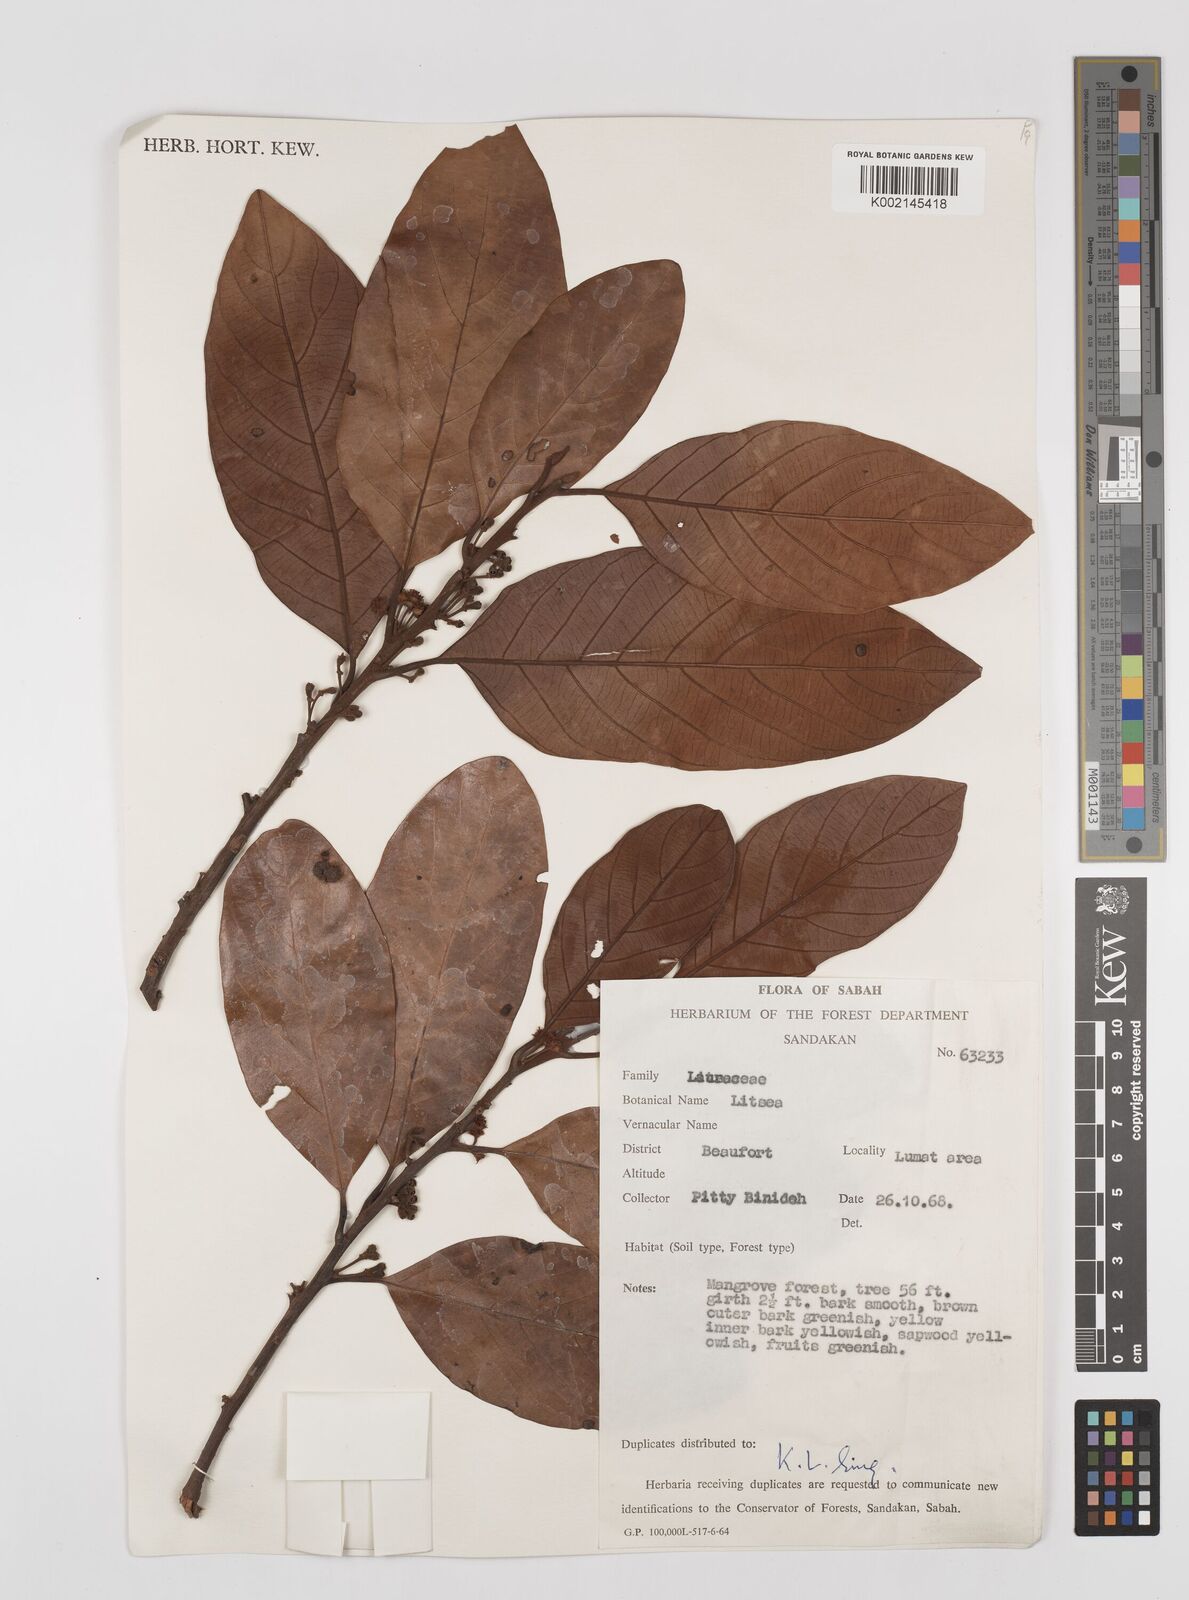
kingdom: Plantae
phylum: Tracheophyta
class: Magnoliopsida
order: Laurales
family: Lauraceae
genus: Litsea
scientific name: Litsea
